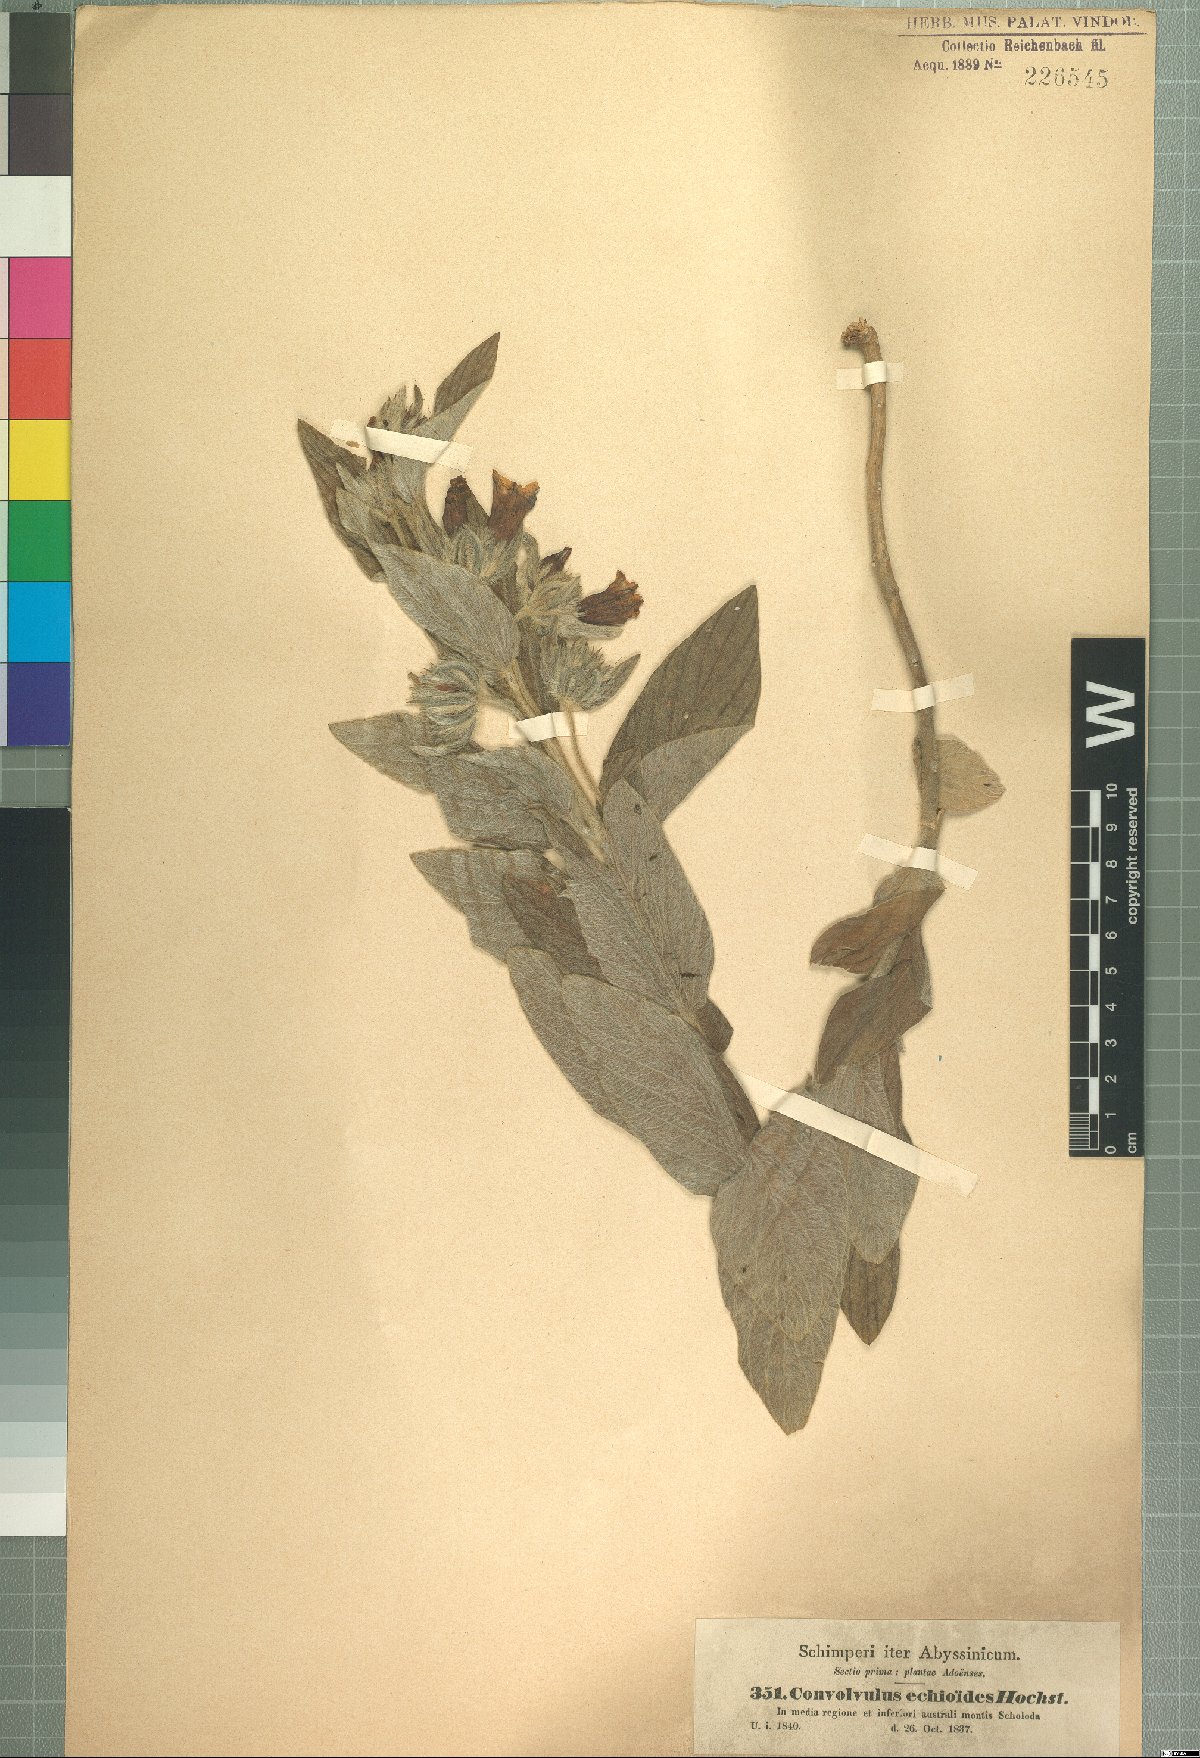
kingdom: Plantae
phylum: Tracheophyta
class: Magnoliopsida
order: Solanales
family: Convolvulaceae
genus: Ipomoea
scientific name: Ipomoea abyssinica
